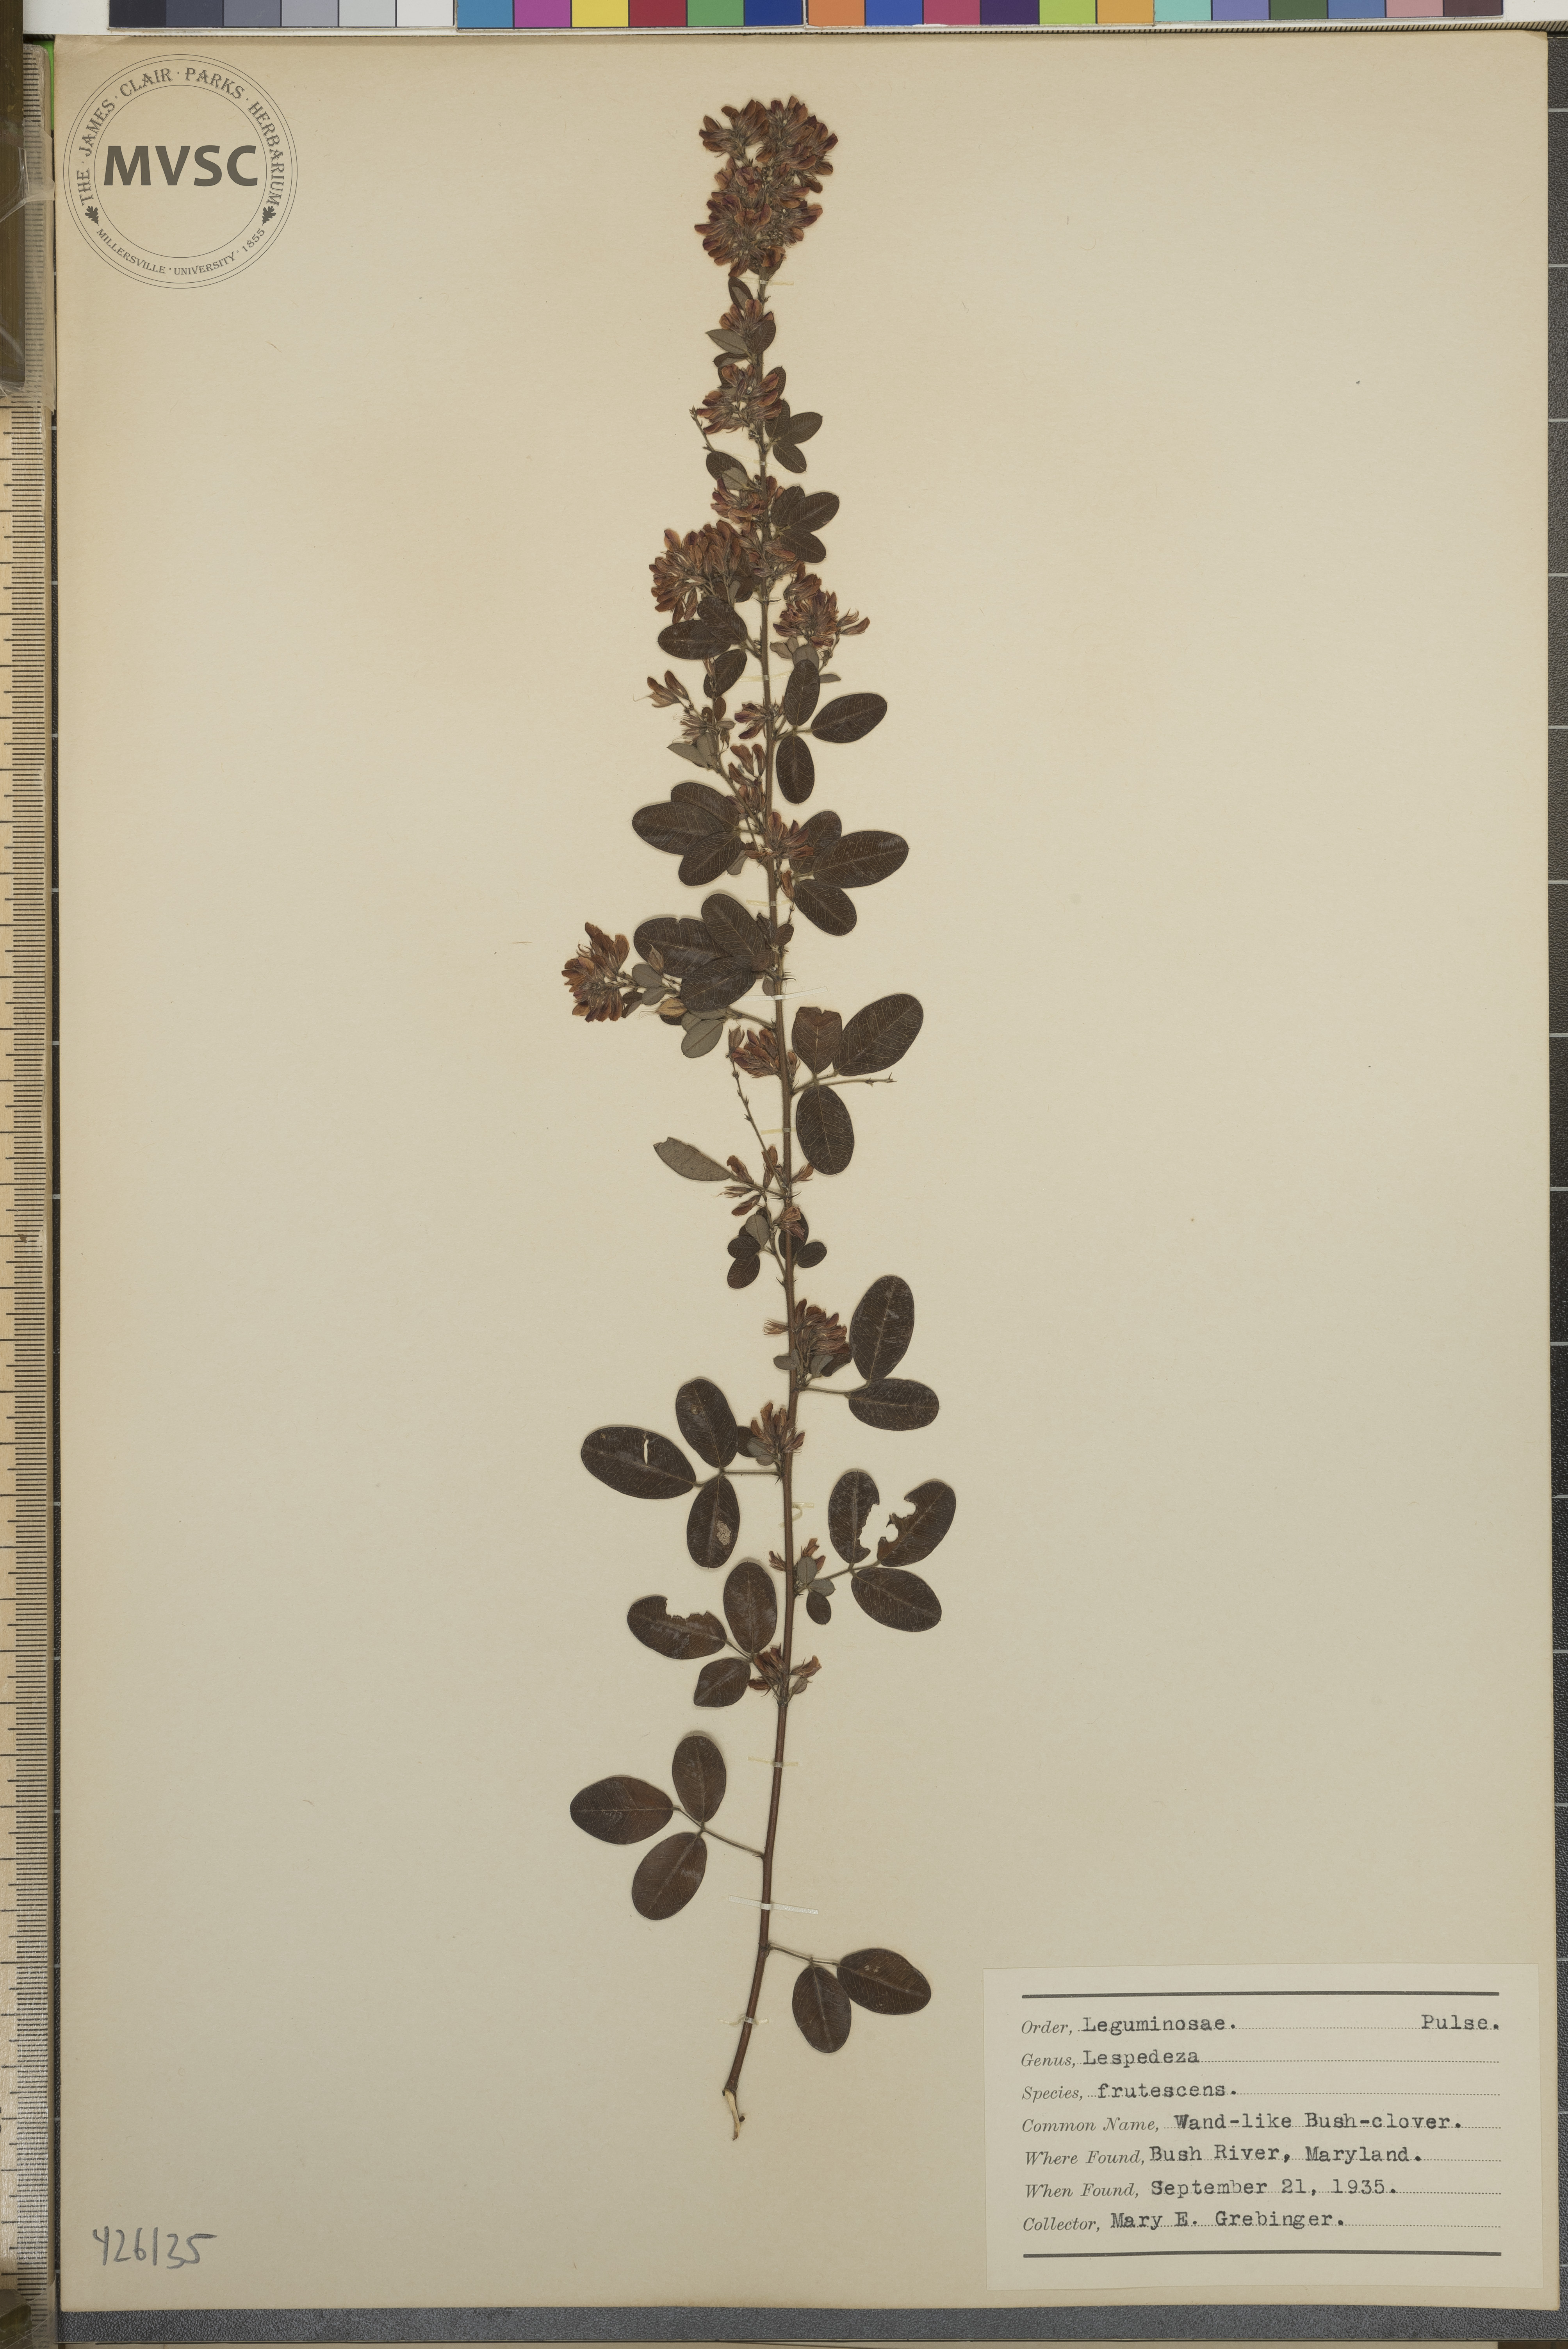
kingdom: Plantae
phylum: Tracheophyta
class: Magnoliopsida
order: Fabales
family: Fabaceae
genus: Lespedeza
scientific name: Lespedeza
